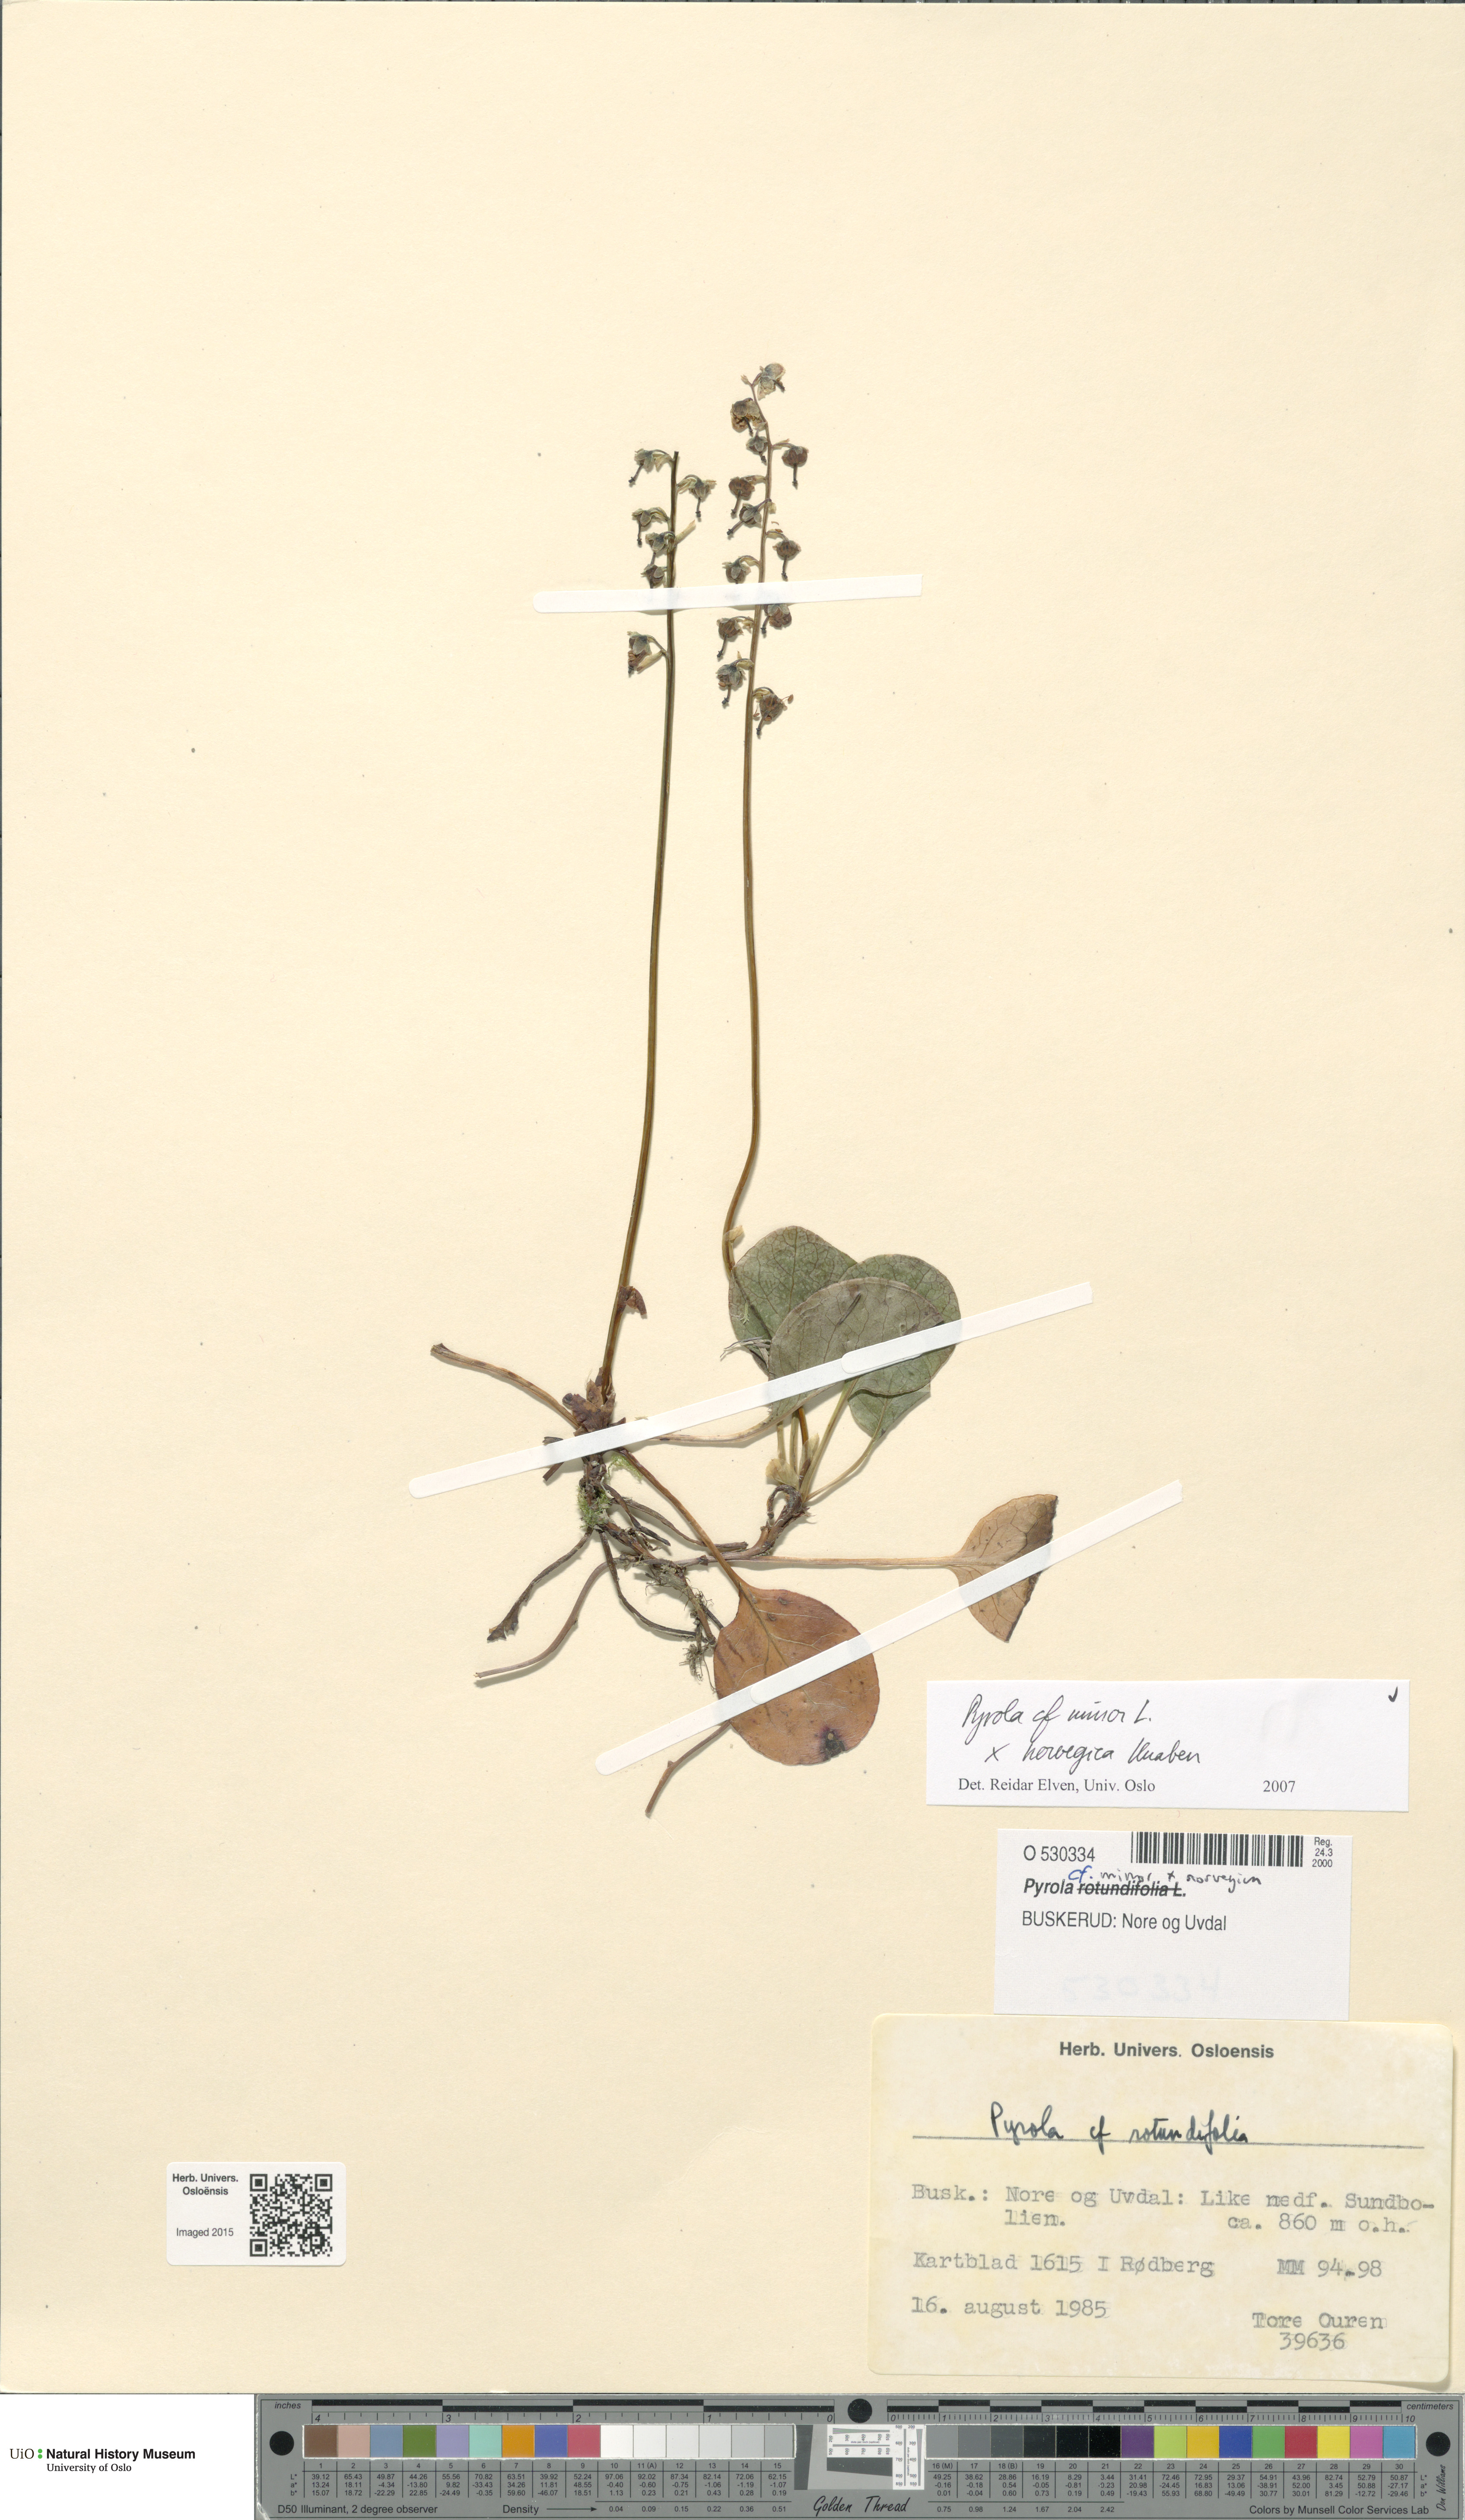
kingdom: Plantae
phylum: Tracheophyta
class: Magnoliopsida
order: Ericales
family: Ericaceae
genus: Pyrola
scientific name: Pyrola
